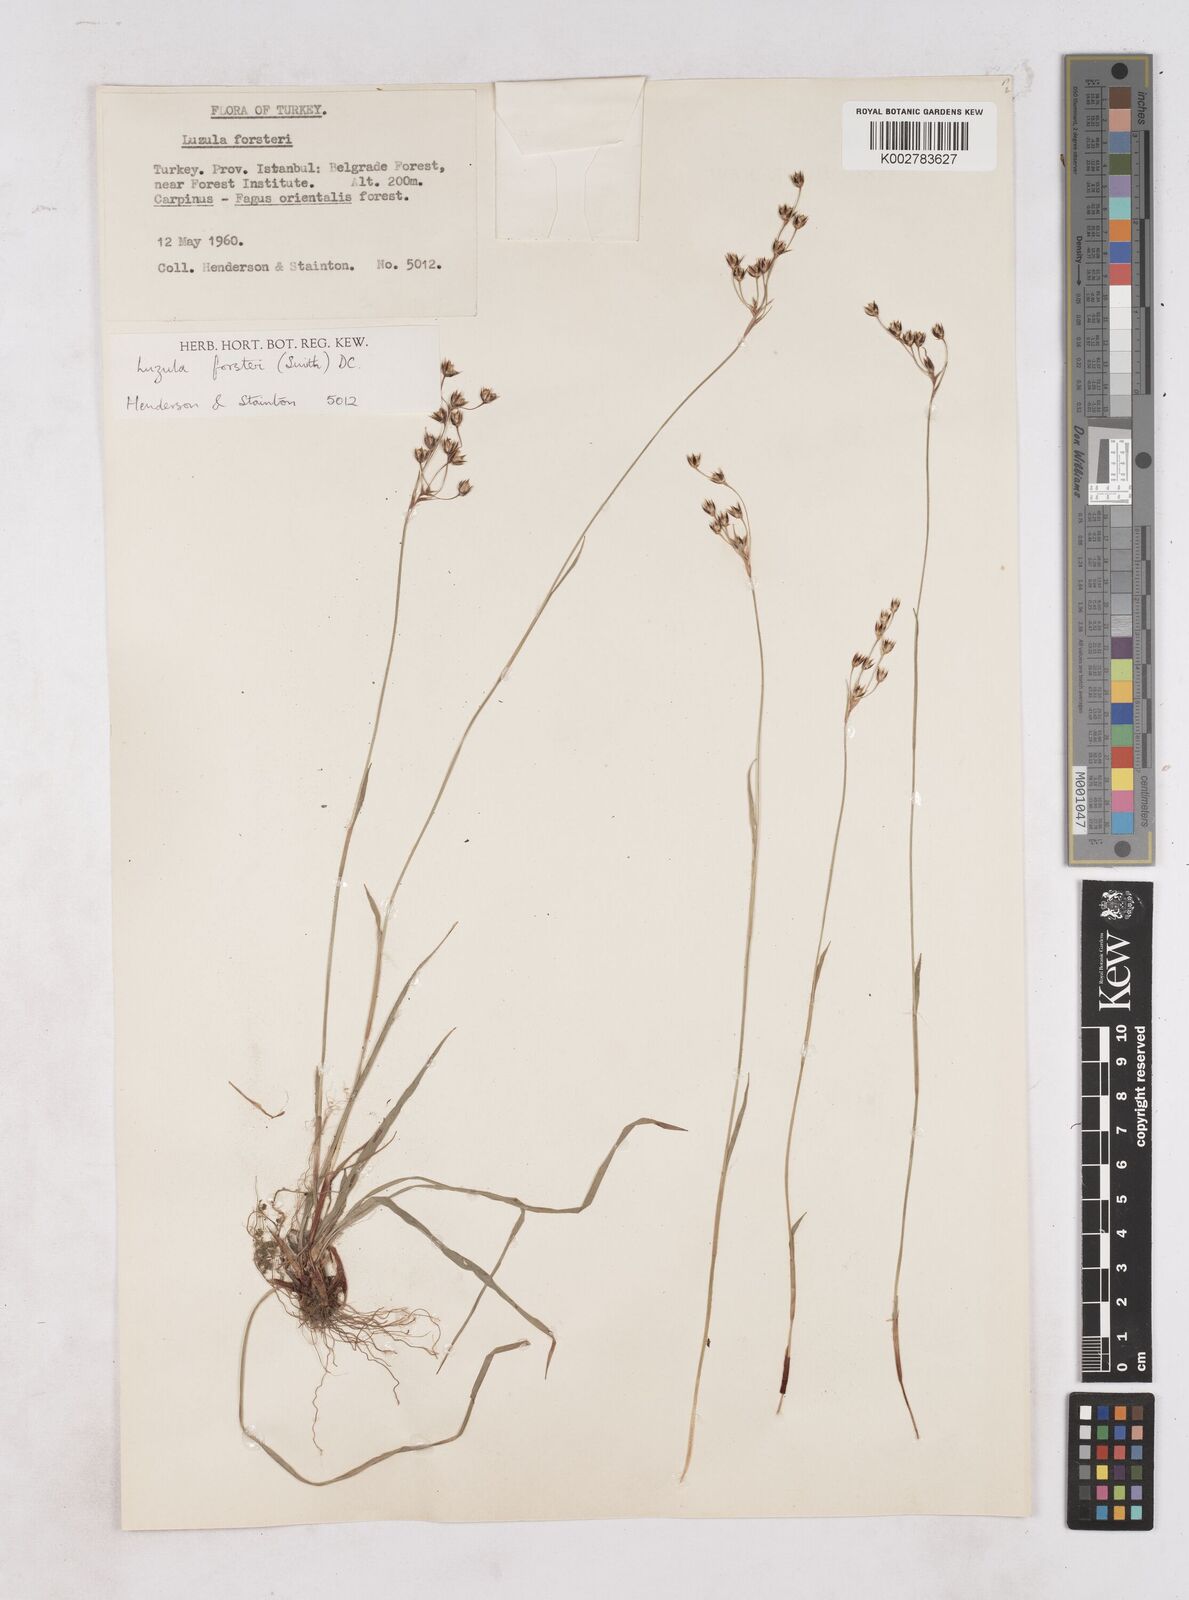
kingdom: Plantae
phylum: Tracheophyta
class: Liliopsida
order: Poales
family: Juncaceae
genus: Luzula
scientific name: Luzula forsteri
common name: Southern wood-rush
